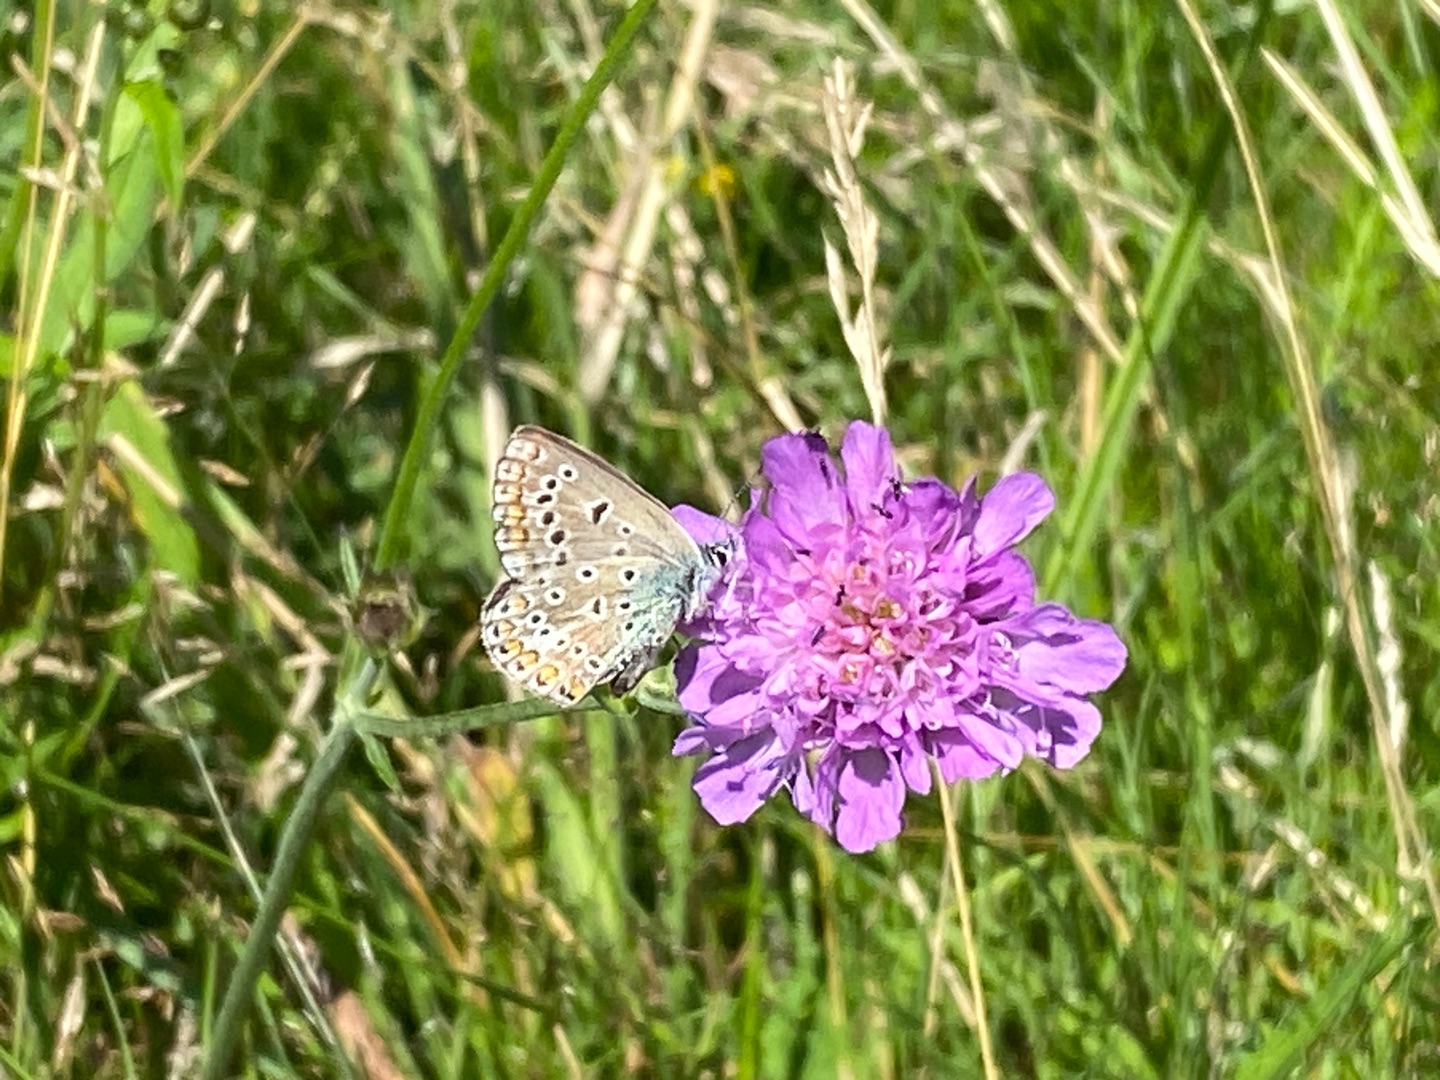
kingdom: Animalia
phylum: Arthropoda
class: Insecta
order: Lepidoptera
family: Lycaenidae
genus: Polyommatus
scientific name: Polyommatus icarus
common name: Almindelig blåfugl
